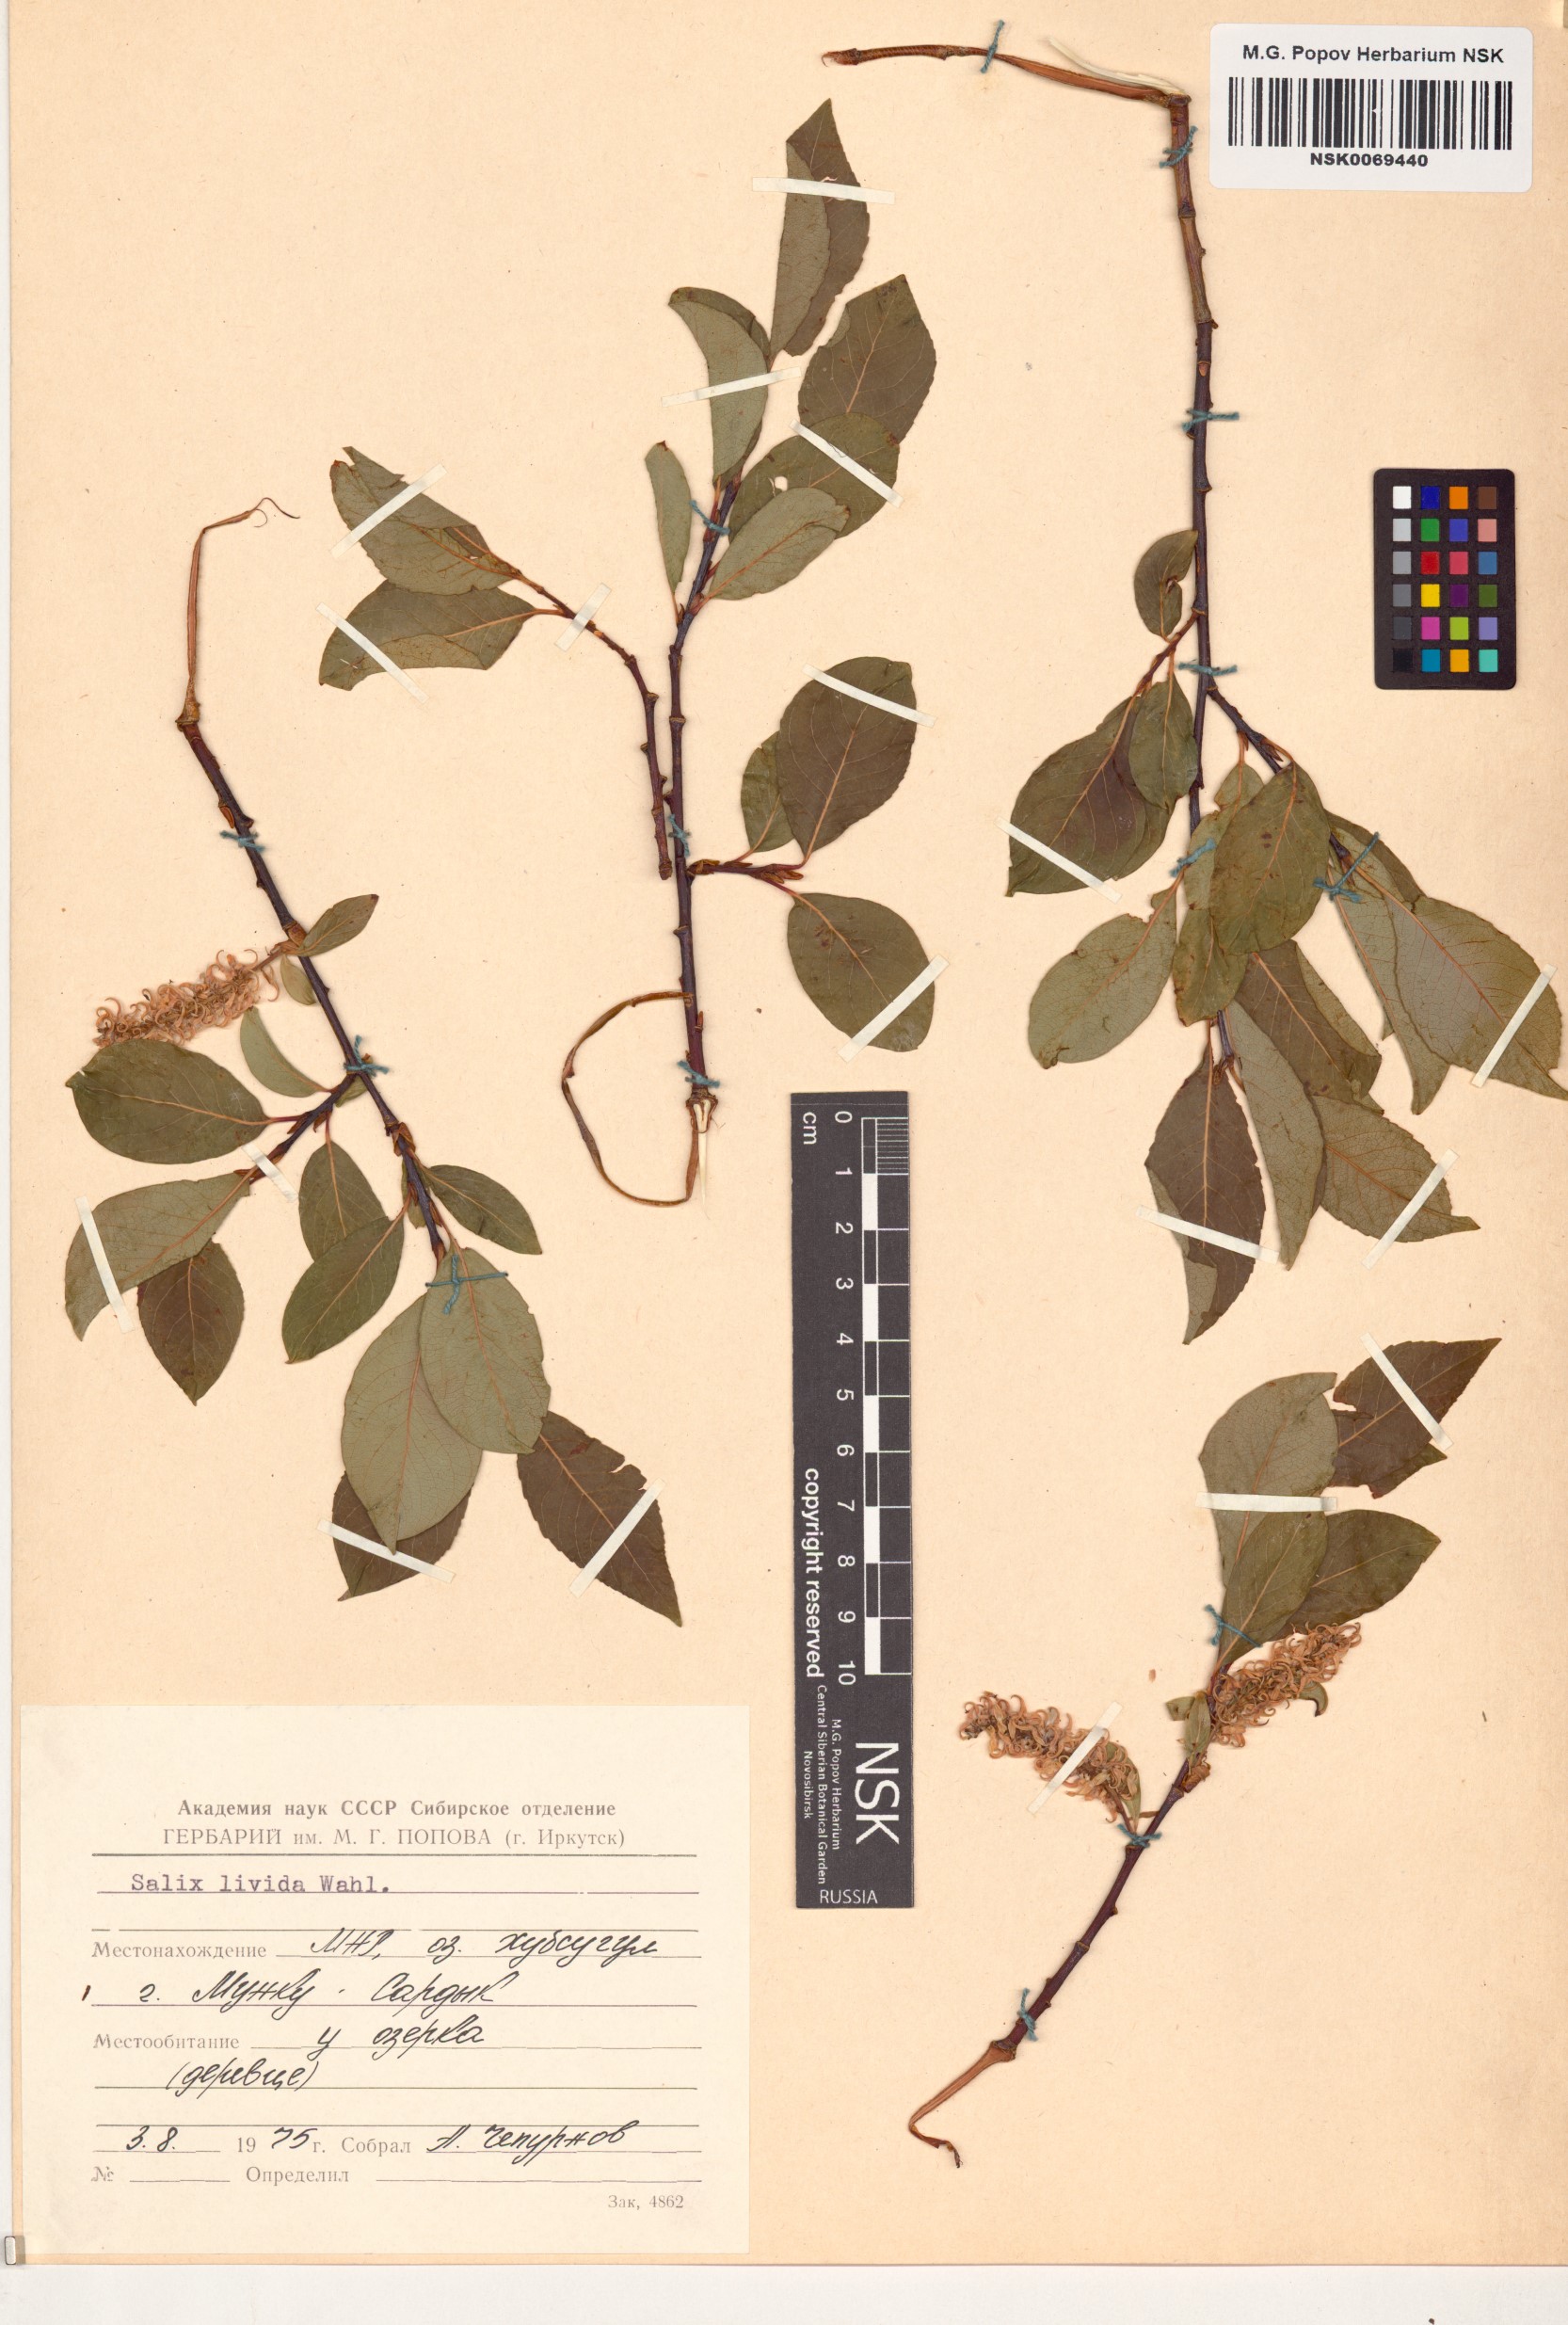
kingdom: Plantae
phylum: Tracheophyta
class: Magnoliopsida
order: Malpighiales
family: Salicaceae
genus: Salix
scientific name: Salix starkeana
